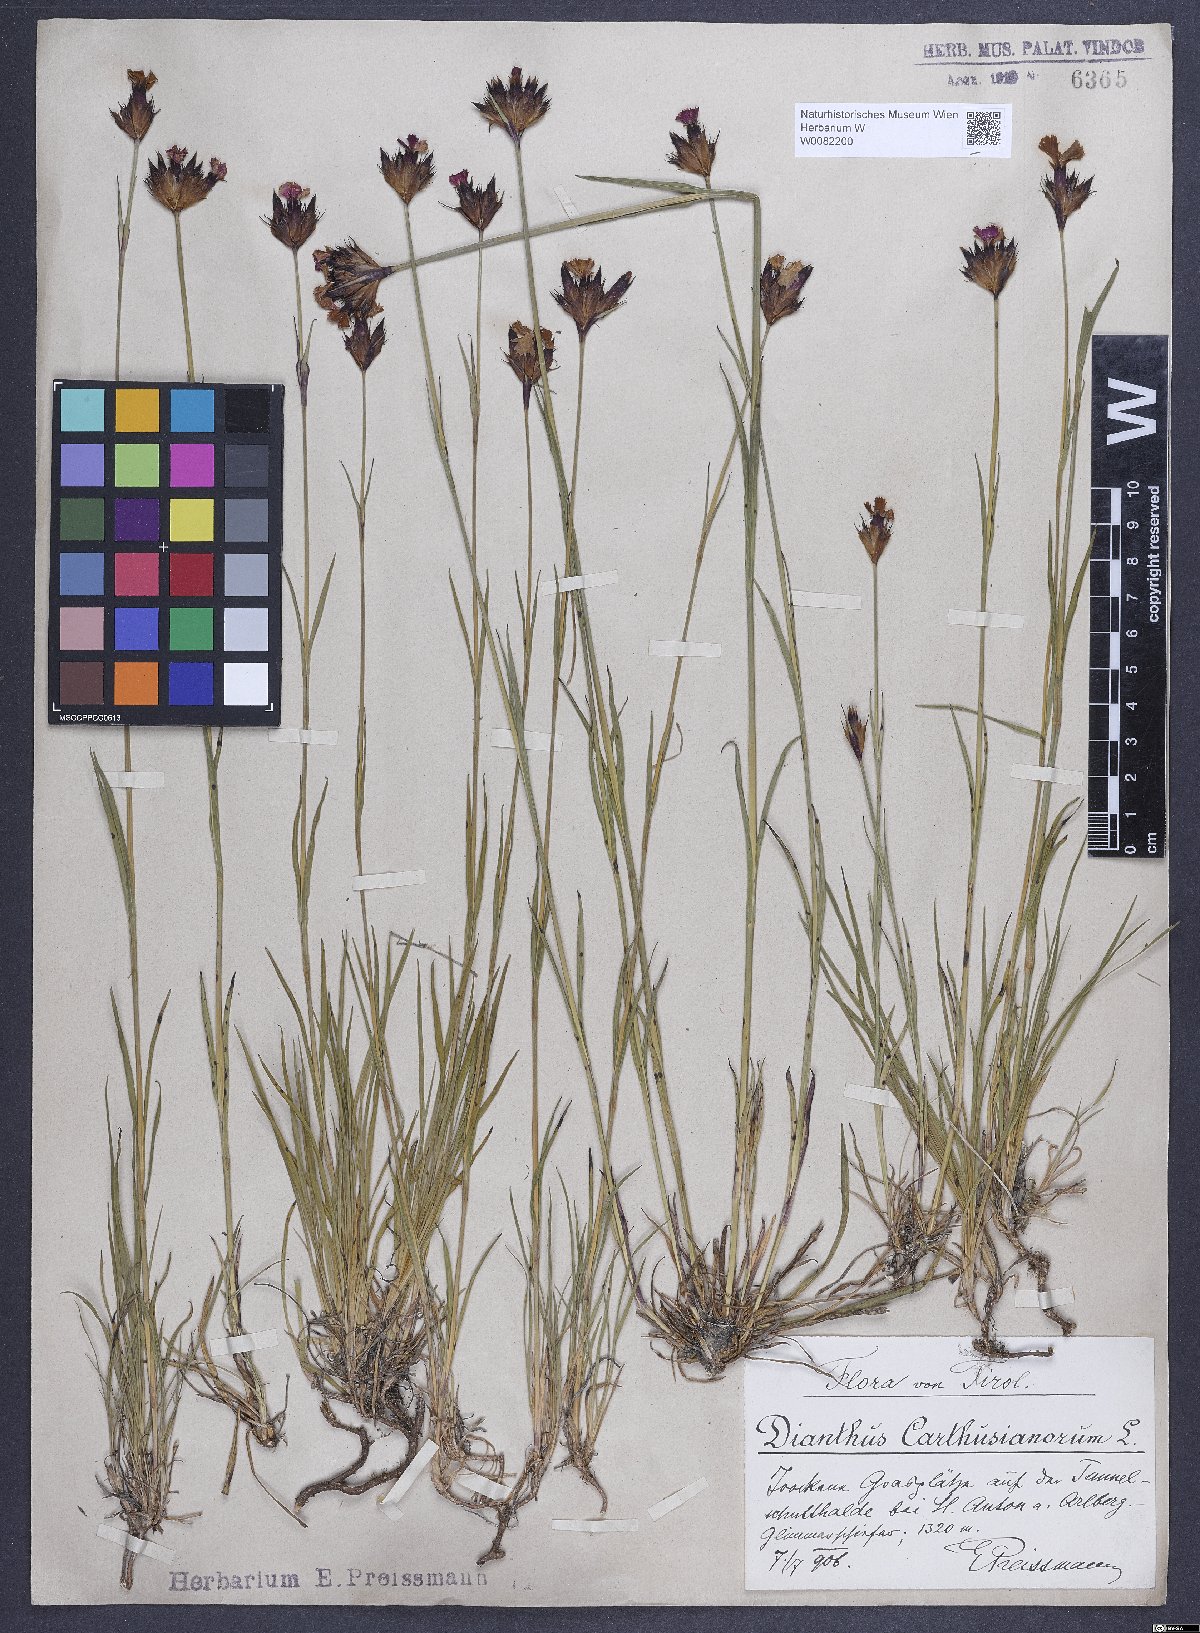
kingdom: Plantae
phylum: Tracheophyta
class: Magnoliopsida
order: Caryophyllales
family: Caryophyllaceae
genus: Dianthus
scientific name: Dianthus carthusianorum
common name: Carthusian pink
